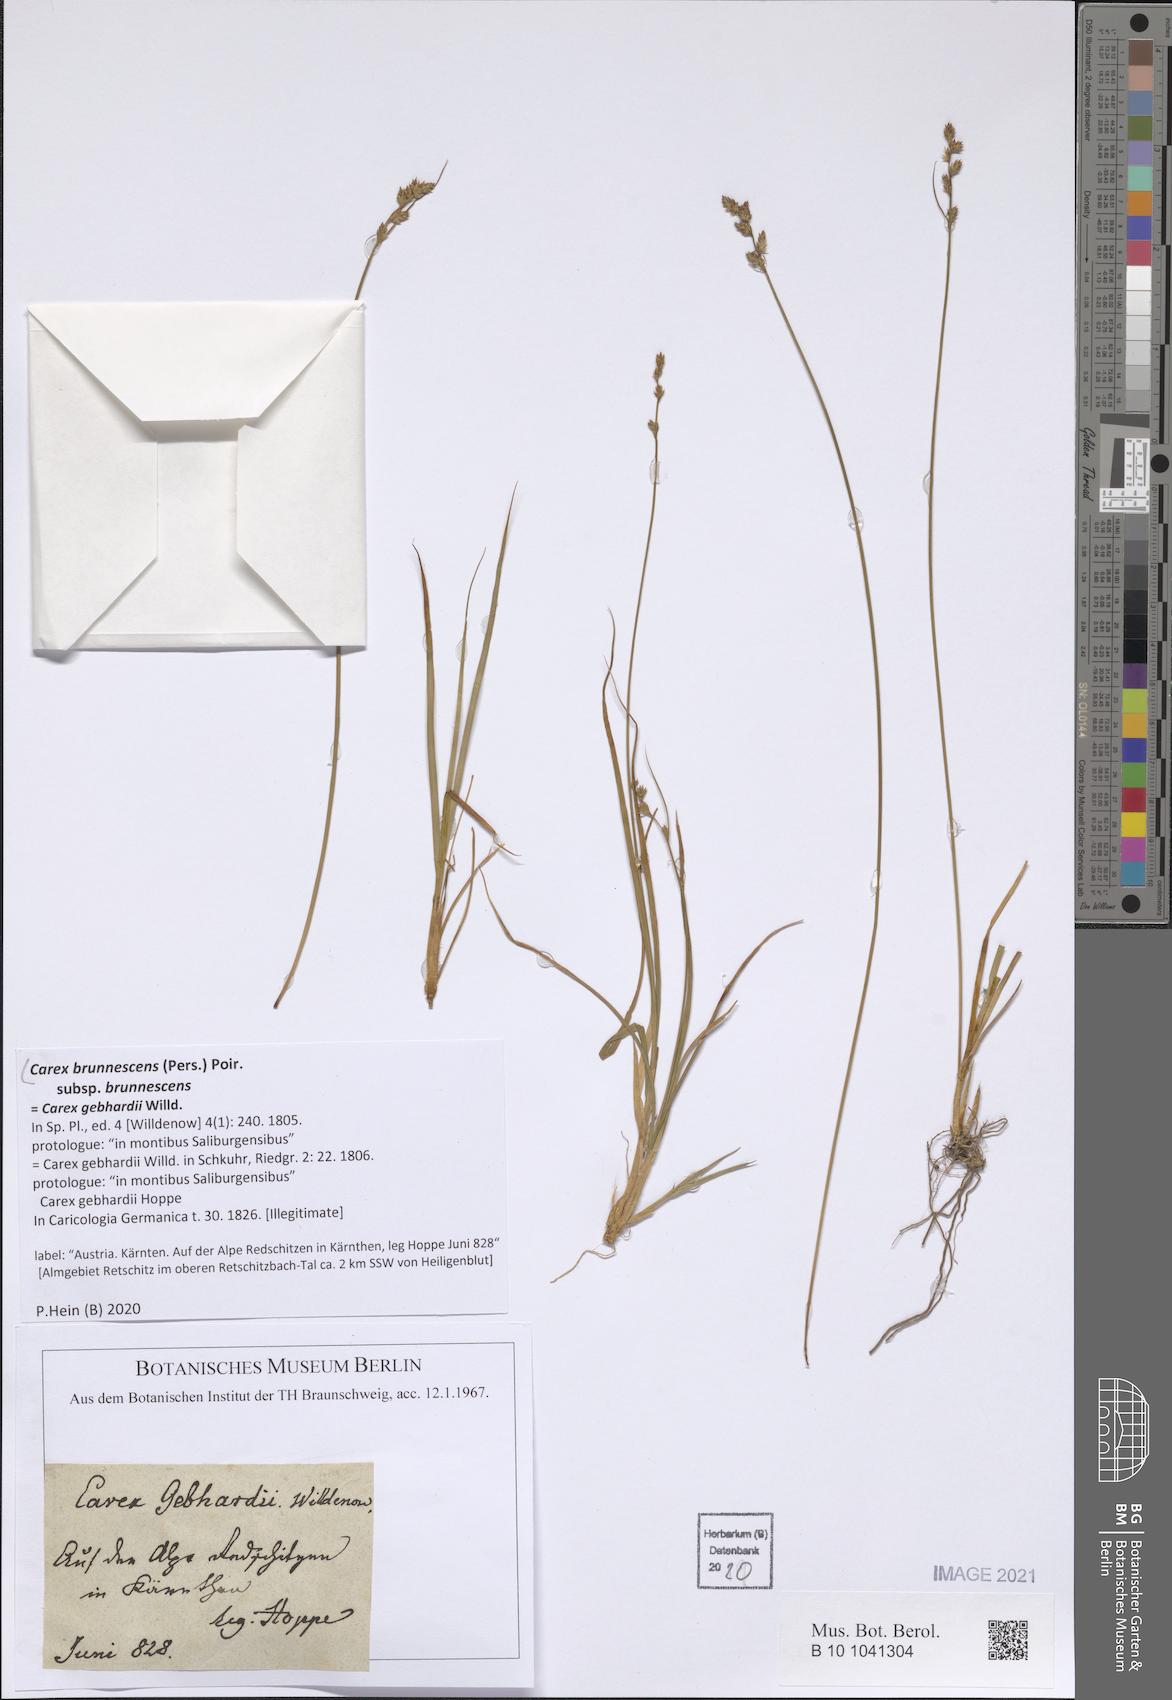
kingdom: Plantae
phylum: Tracheophyta
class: Liliopsida
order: Poales
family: Cyperaceae
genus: Carex
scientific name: Carex brunnescens
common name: Brown sedge
